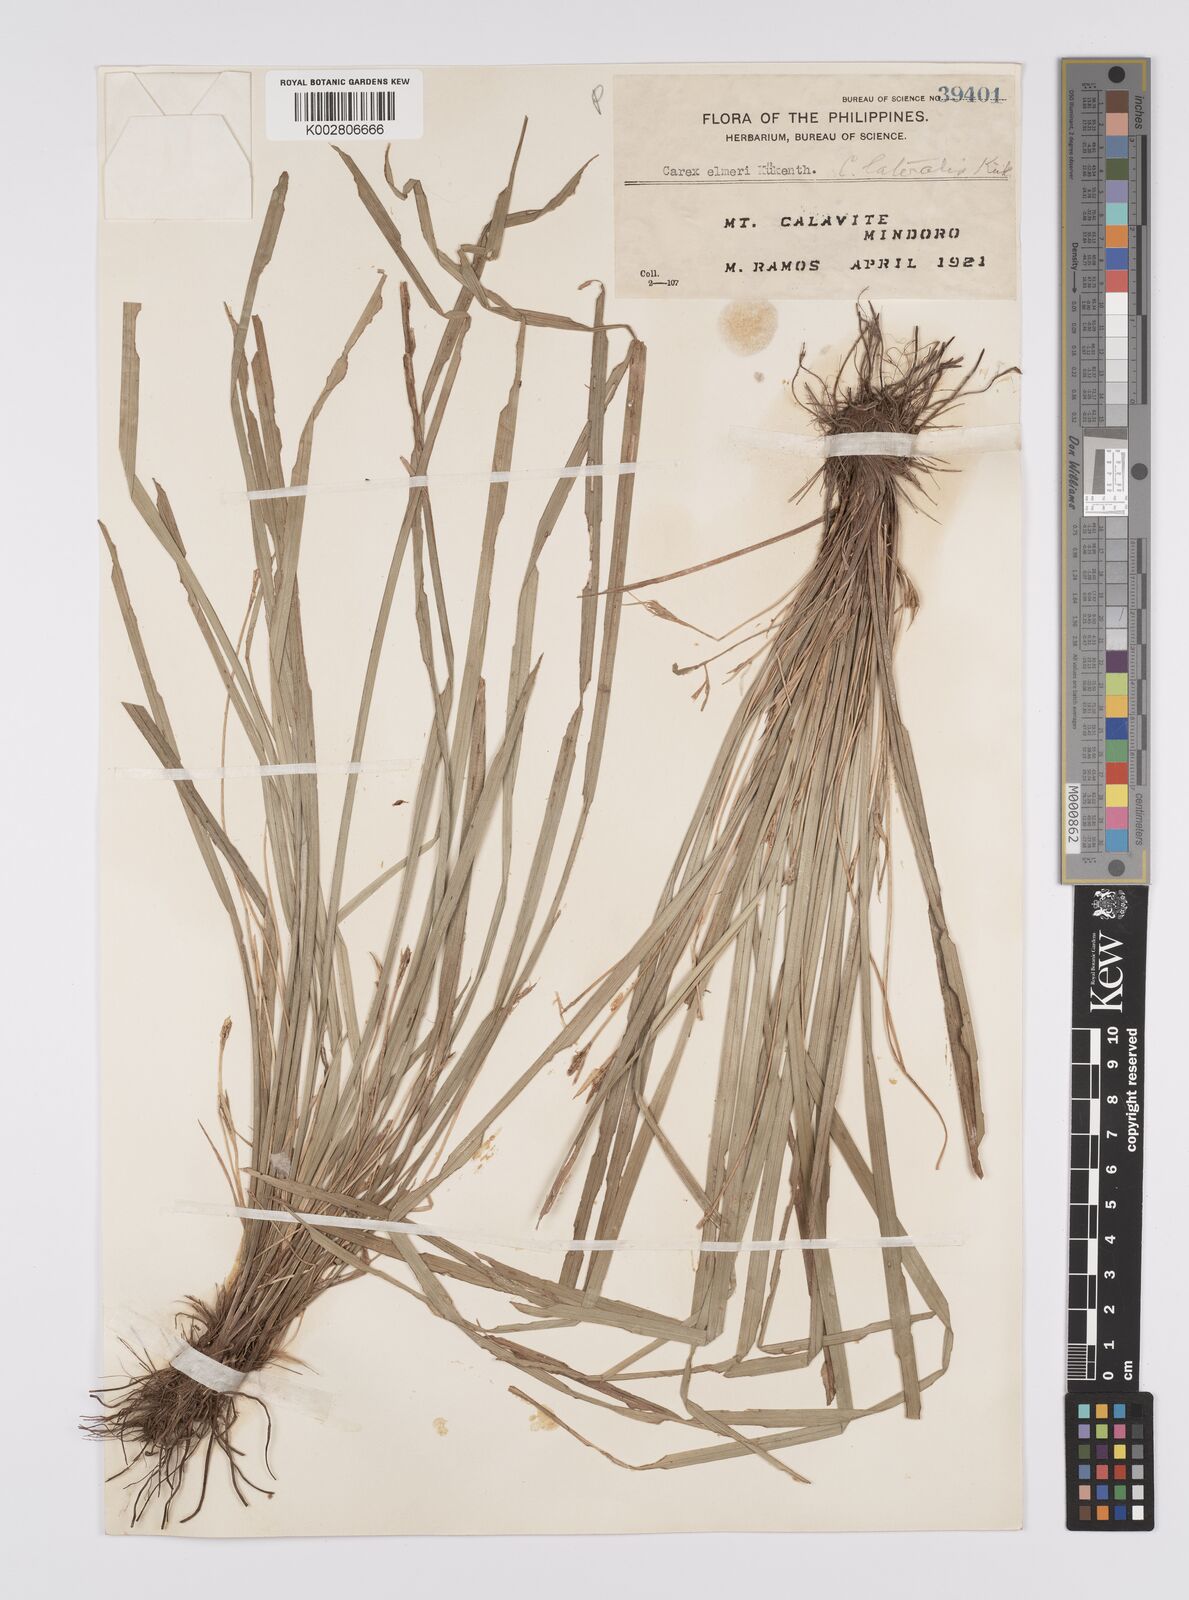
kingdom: Plantae
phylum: Tracheophyta
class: Liliopsida
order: Poales
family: Cyperaceae
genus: Carex
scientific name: Carex oxyphylla
